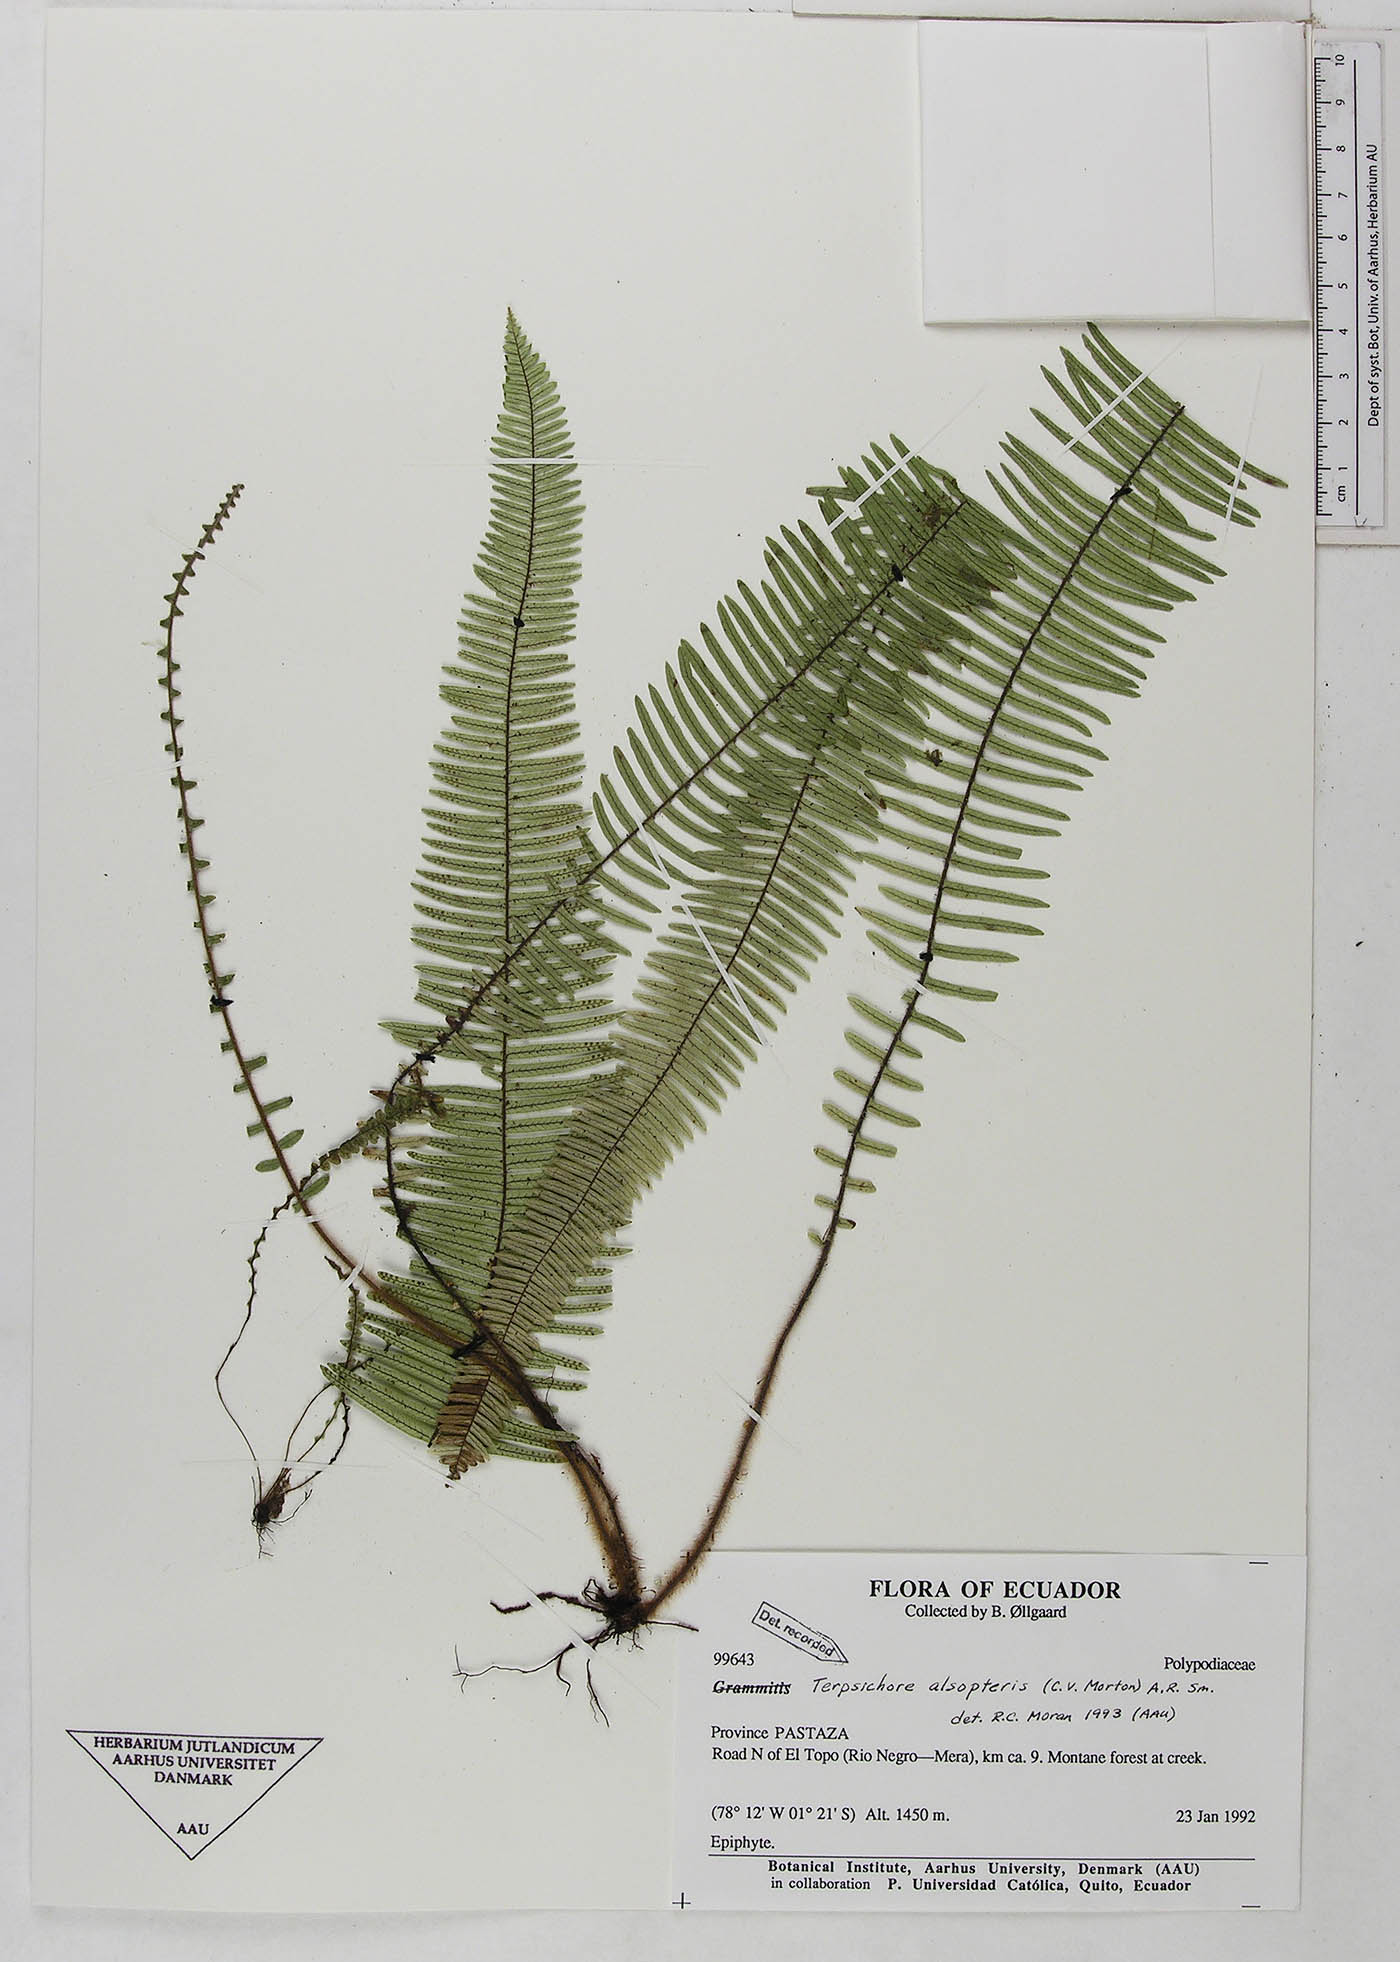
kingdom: Plantae
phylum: Tracheophyta
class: Polypodiopsida
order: Polypodiales
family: Polypodiaceae
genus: Mycopteris
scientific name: Mycopteris alsopteris
